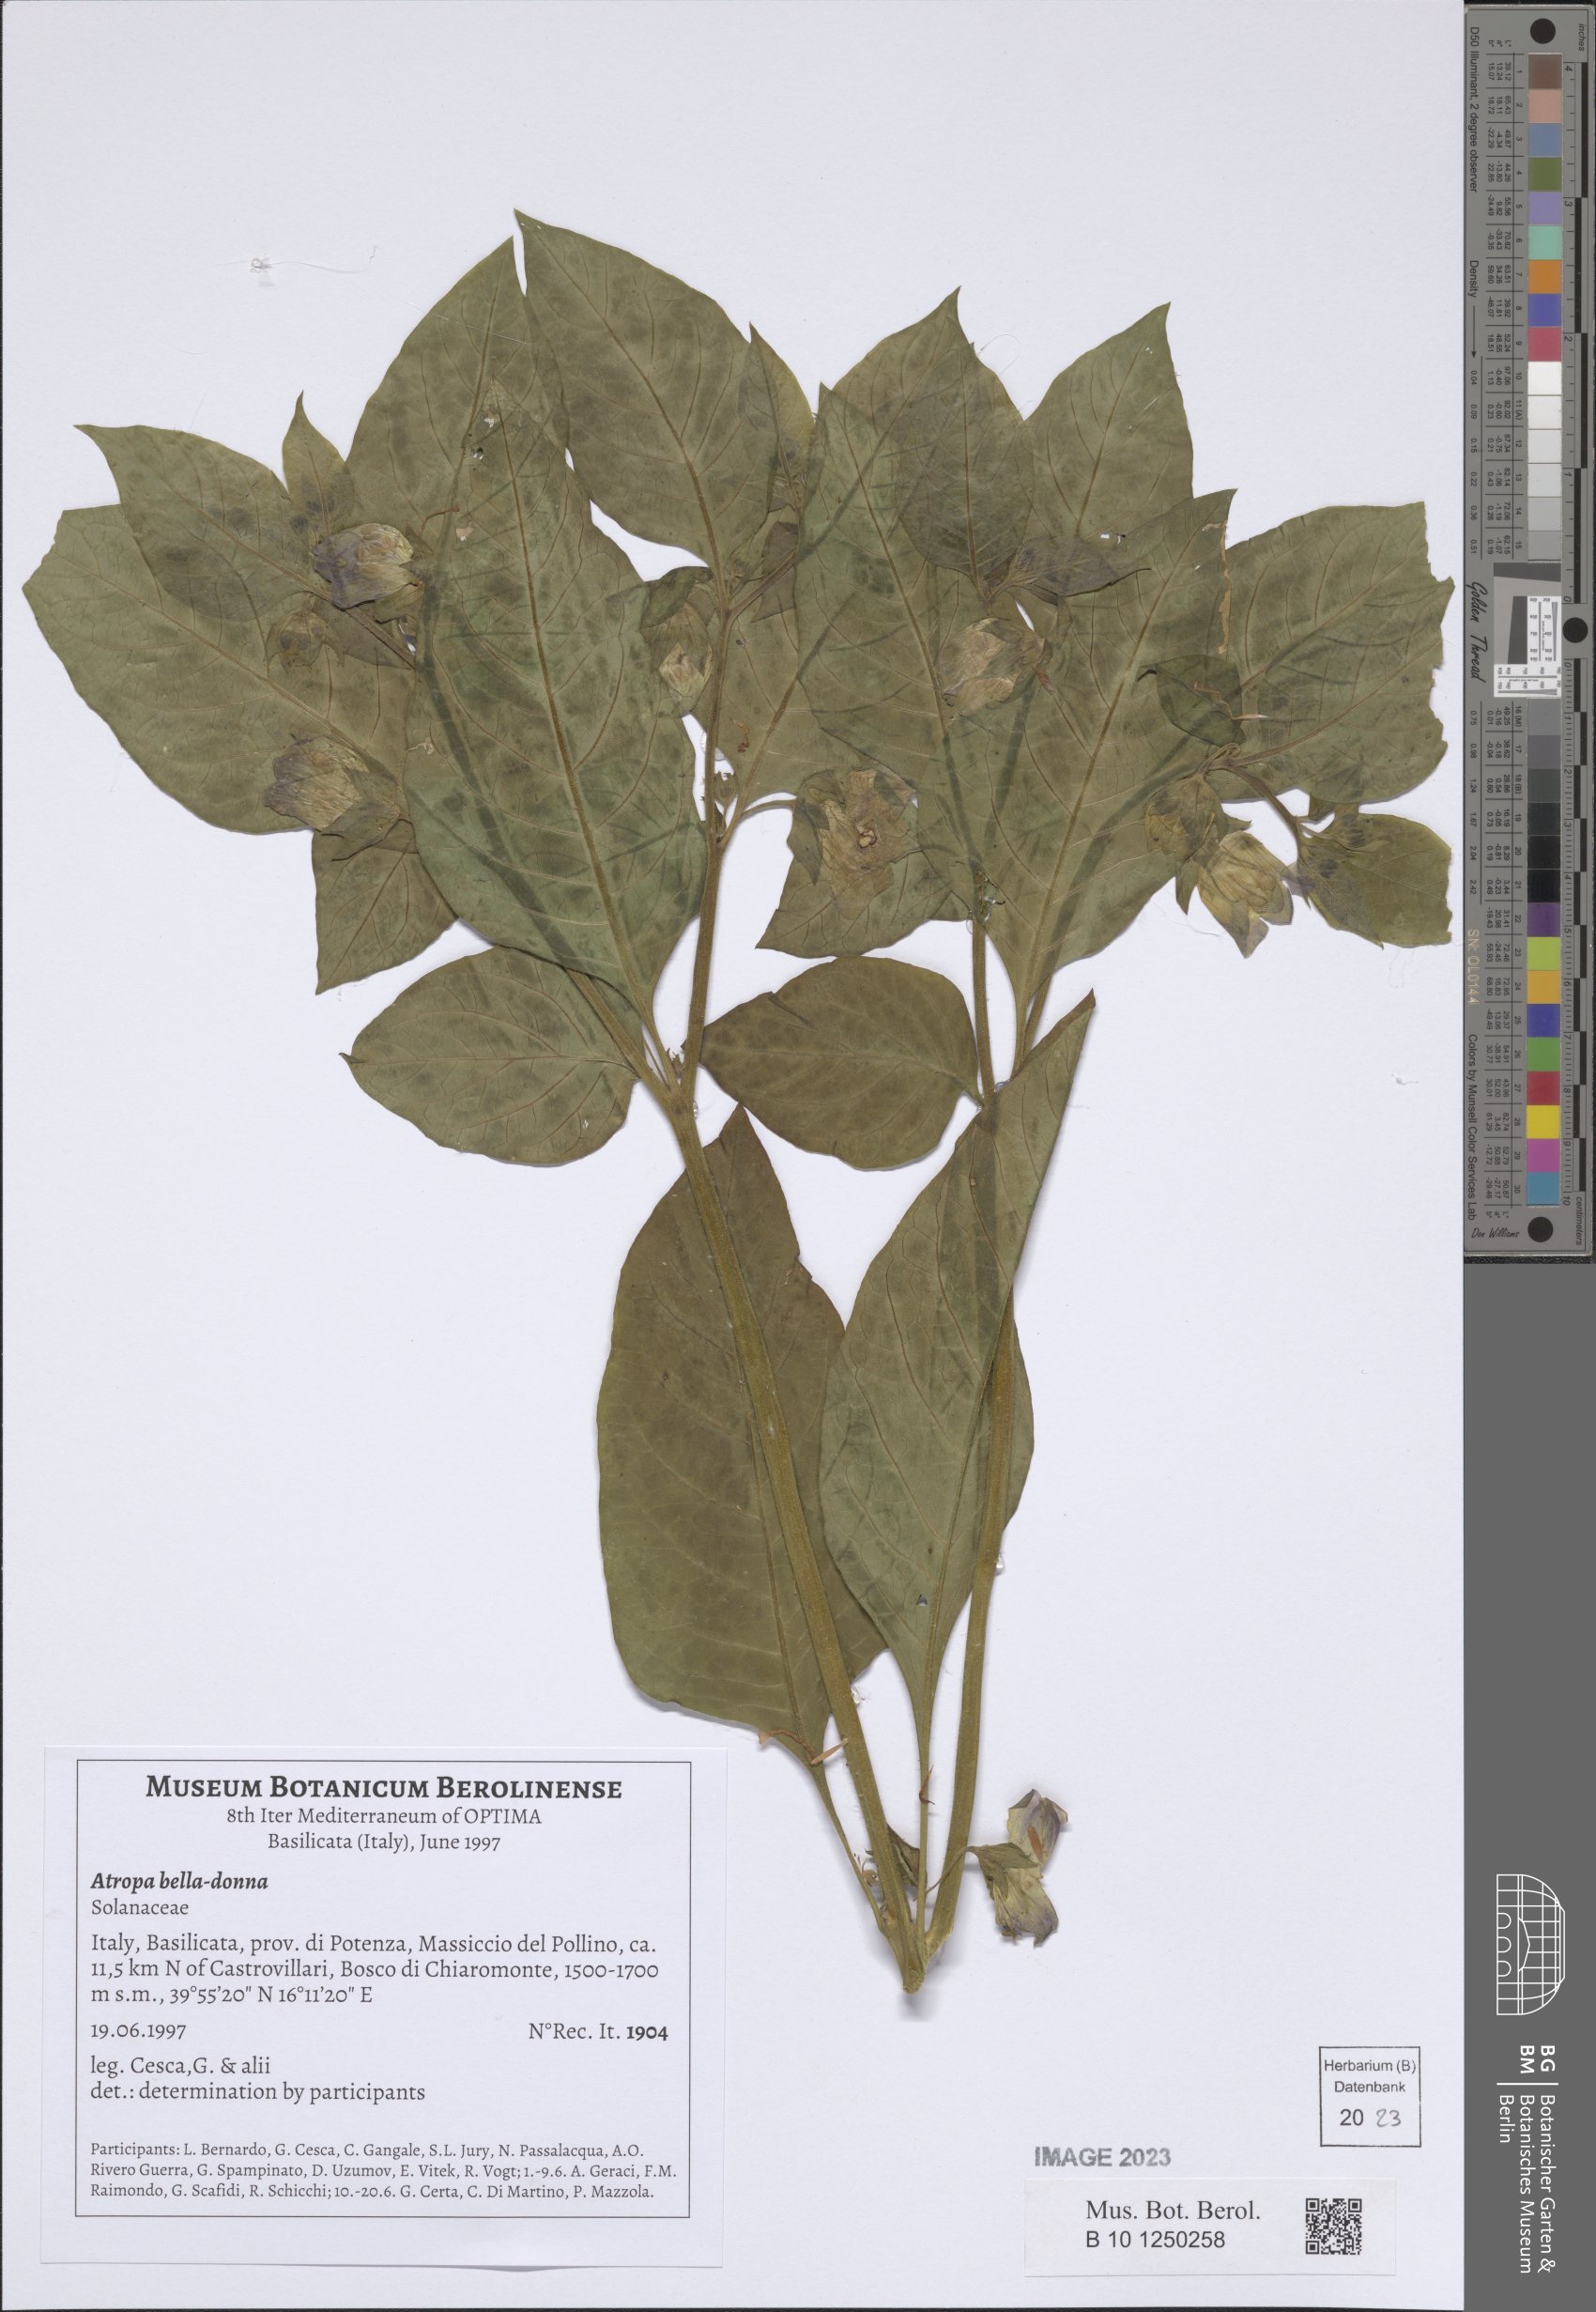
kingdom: Plantae
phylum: Tracheophyta
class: Magnoliopsida
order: Solanales
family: Solanaceae
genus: Atropa
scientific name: Atropa belladonna
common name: Deadly nightshade
